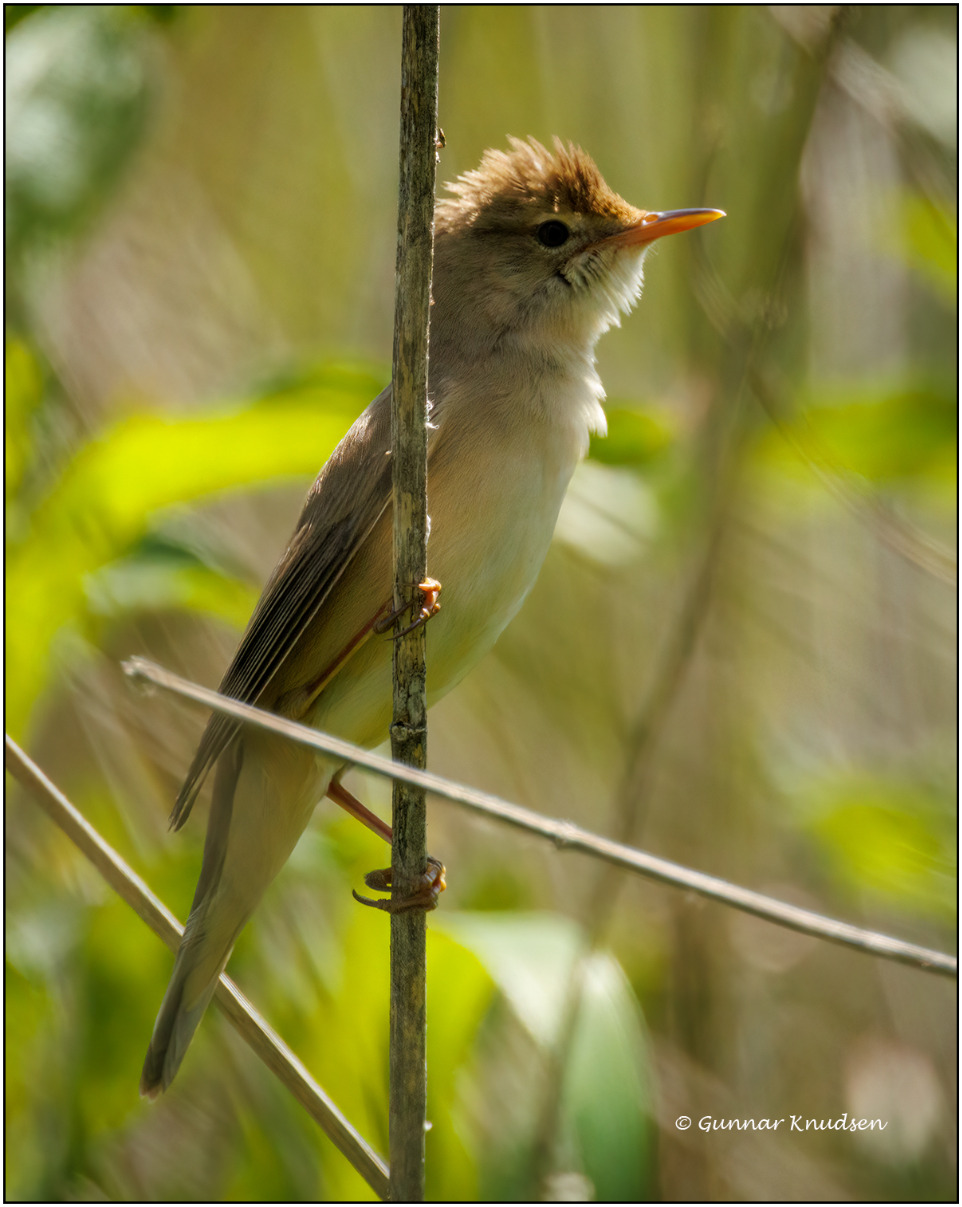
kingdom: Animalia
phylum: Chordata
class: Aves
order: Passeriformes
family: Acrocephalidae
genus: Acrocephalus
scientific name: Acrocephalus palustris
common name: Kærsanger
